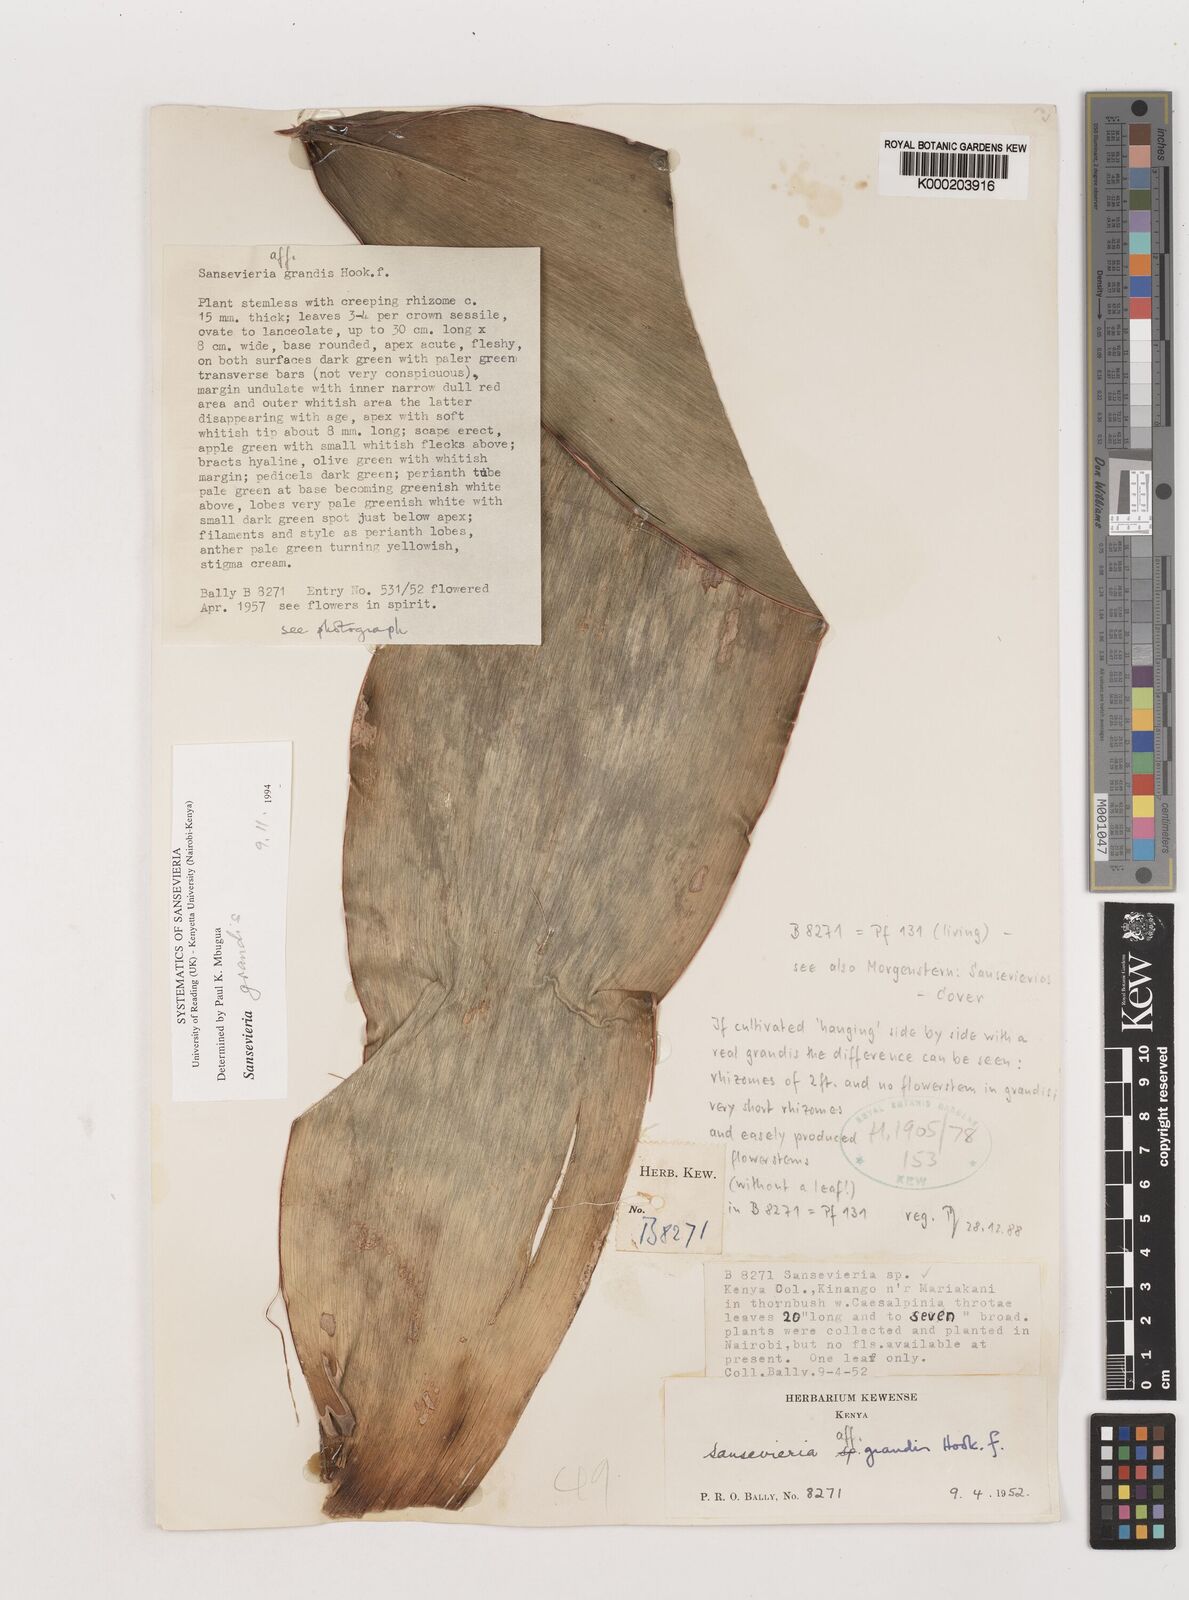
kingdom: Plantae
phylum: Tracheophyta
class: Liliopsida
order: Asparagales
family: Asparagaceae
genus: Dracaena
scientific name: Dracaena hyacinthoides
